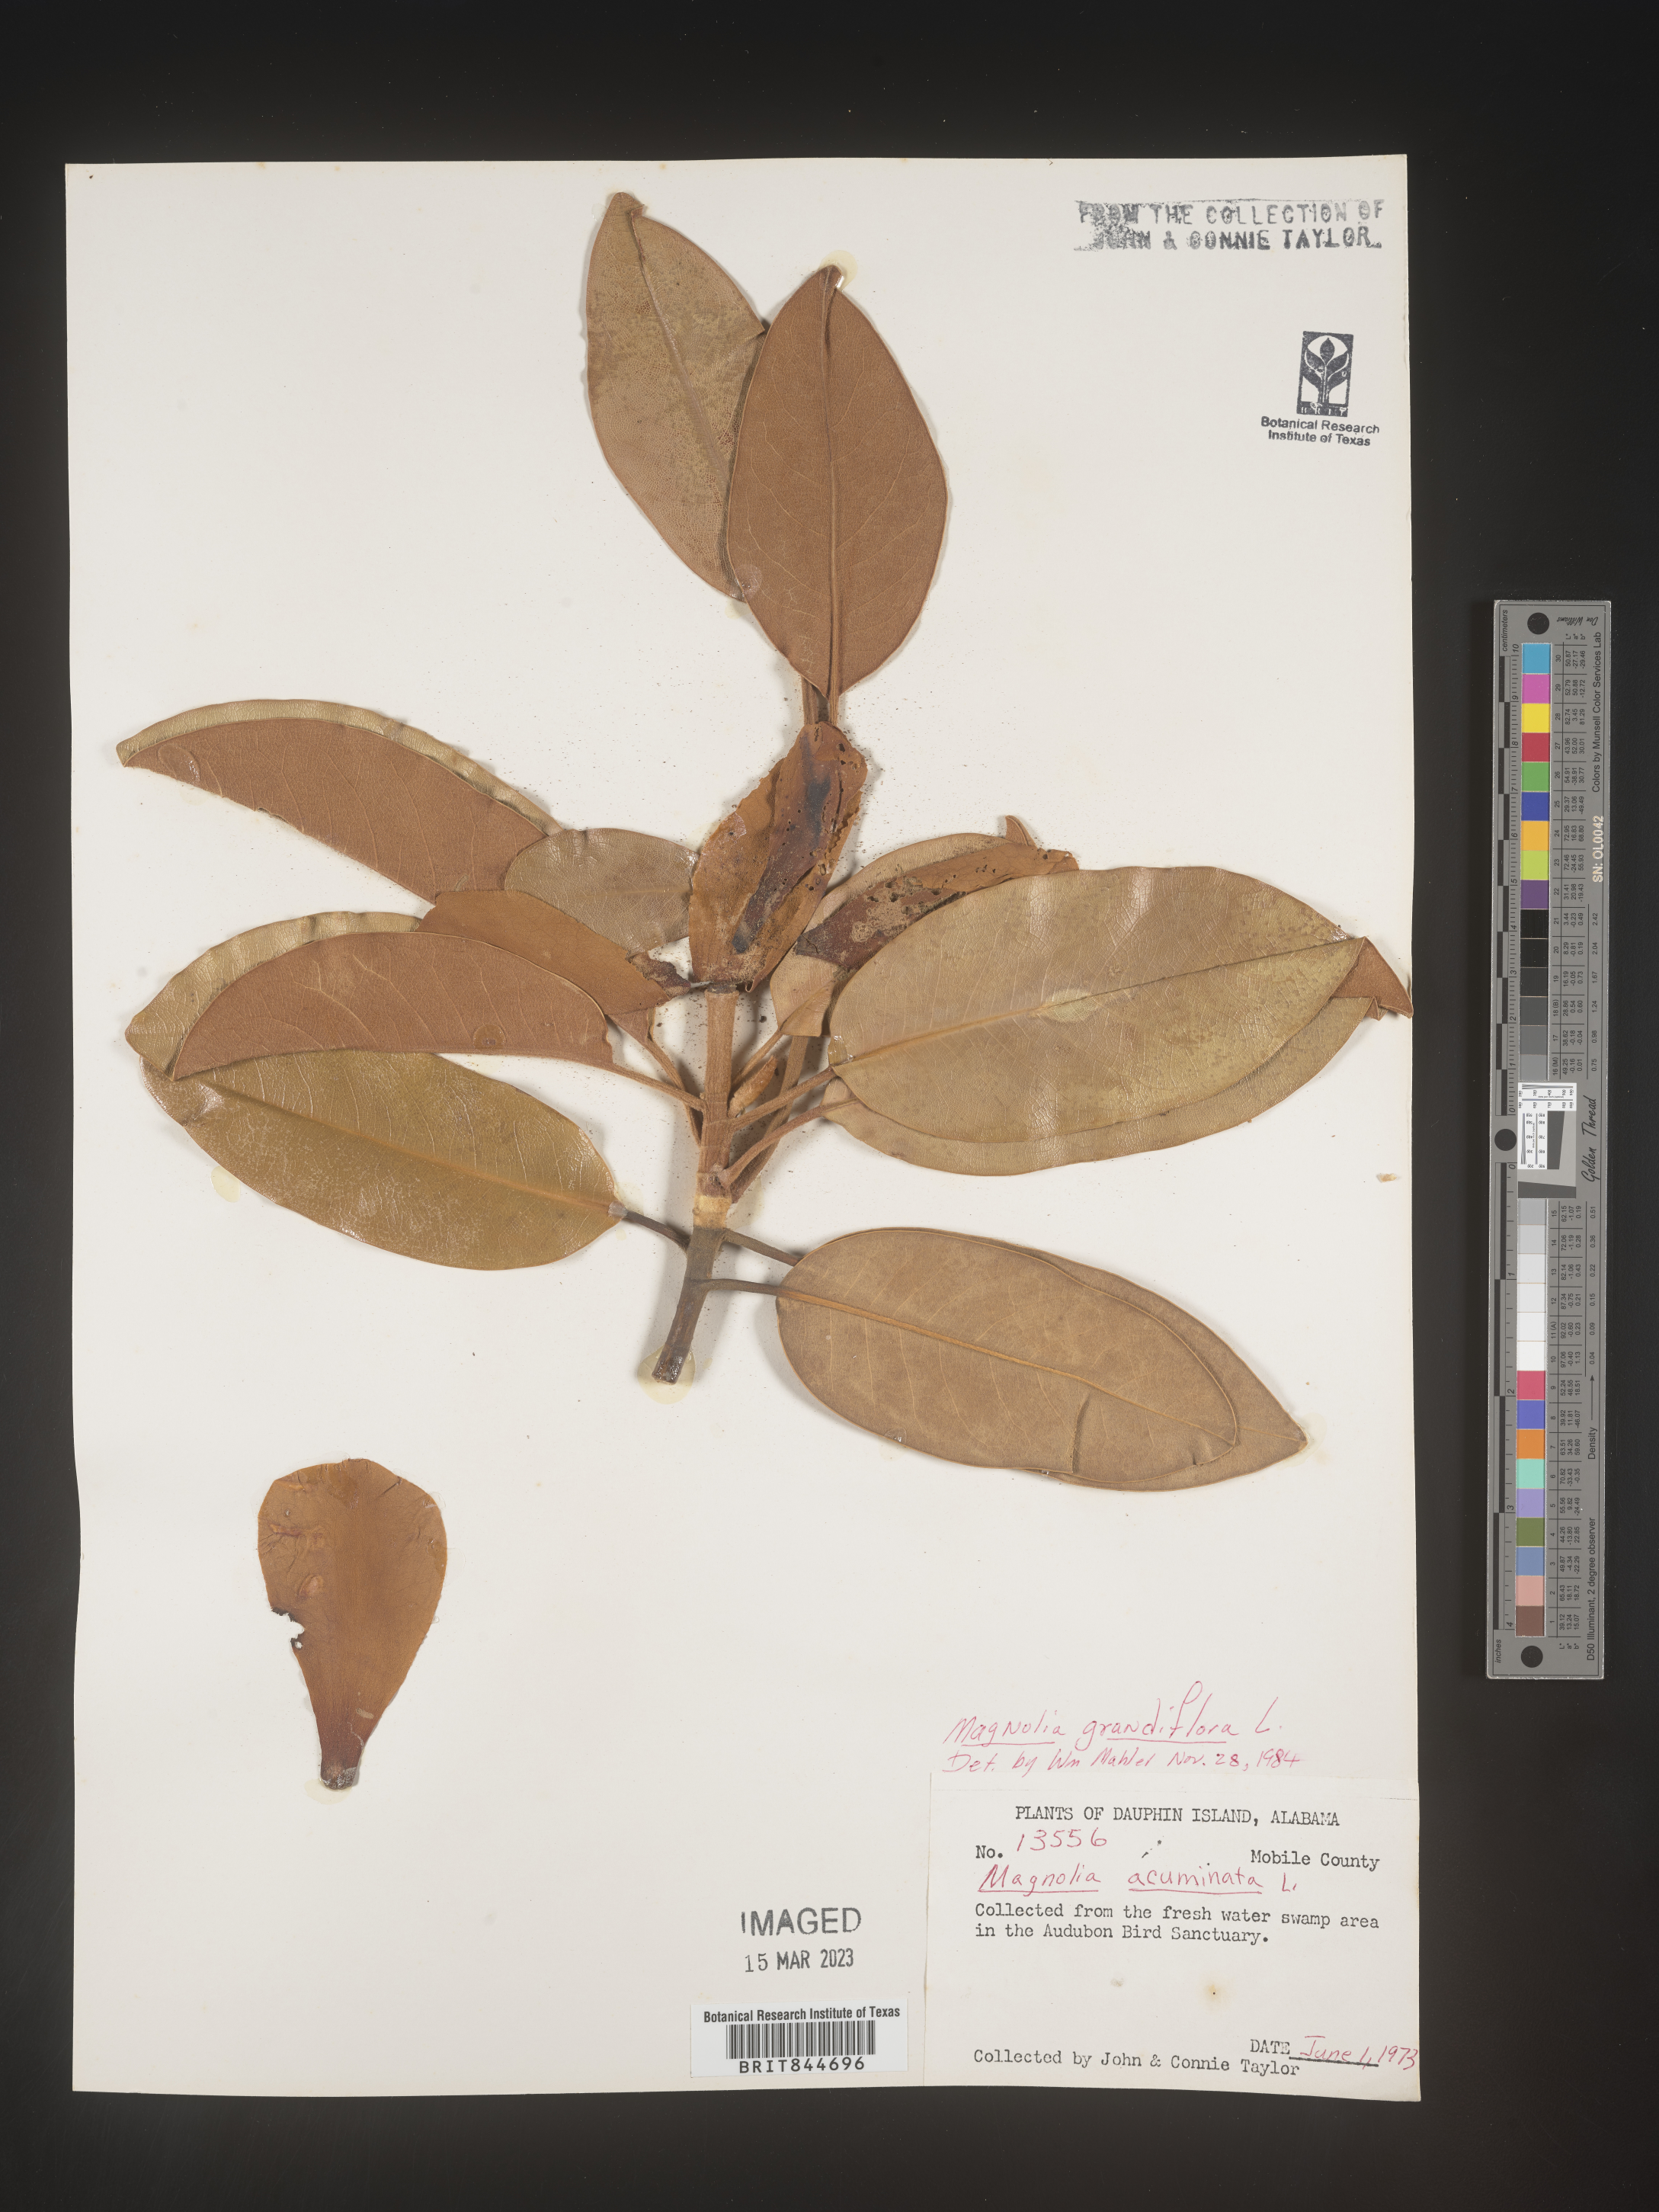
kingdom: Plantae
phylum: Tracheophyta
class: Magnoliopsida
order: Magnoliales
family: Magnoliaceae
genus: Magnolia
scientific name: Magnolia grandiflora
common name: Southern magnolia
